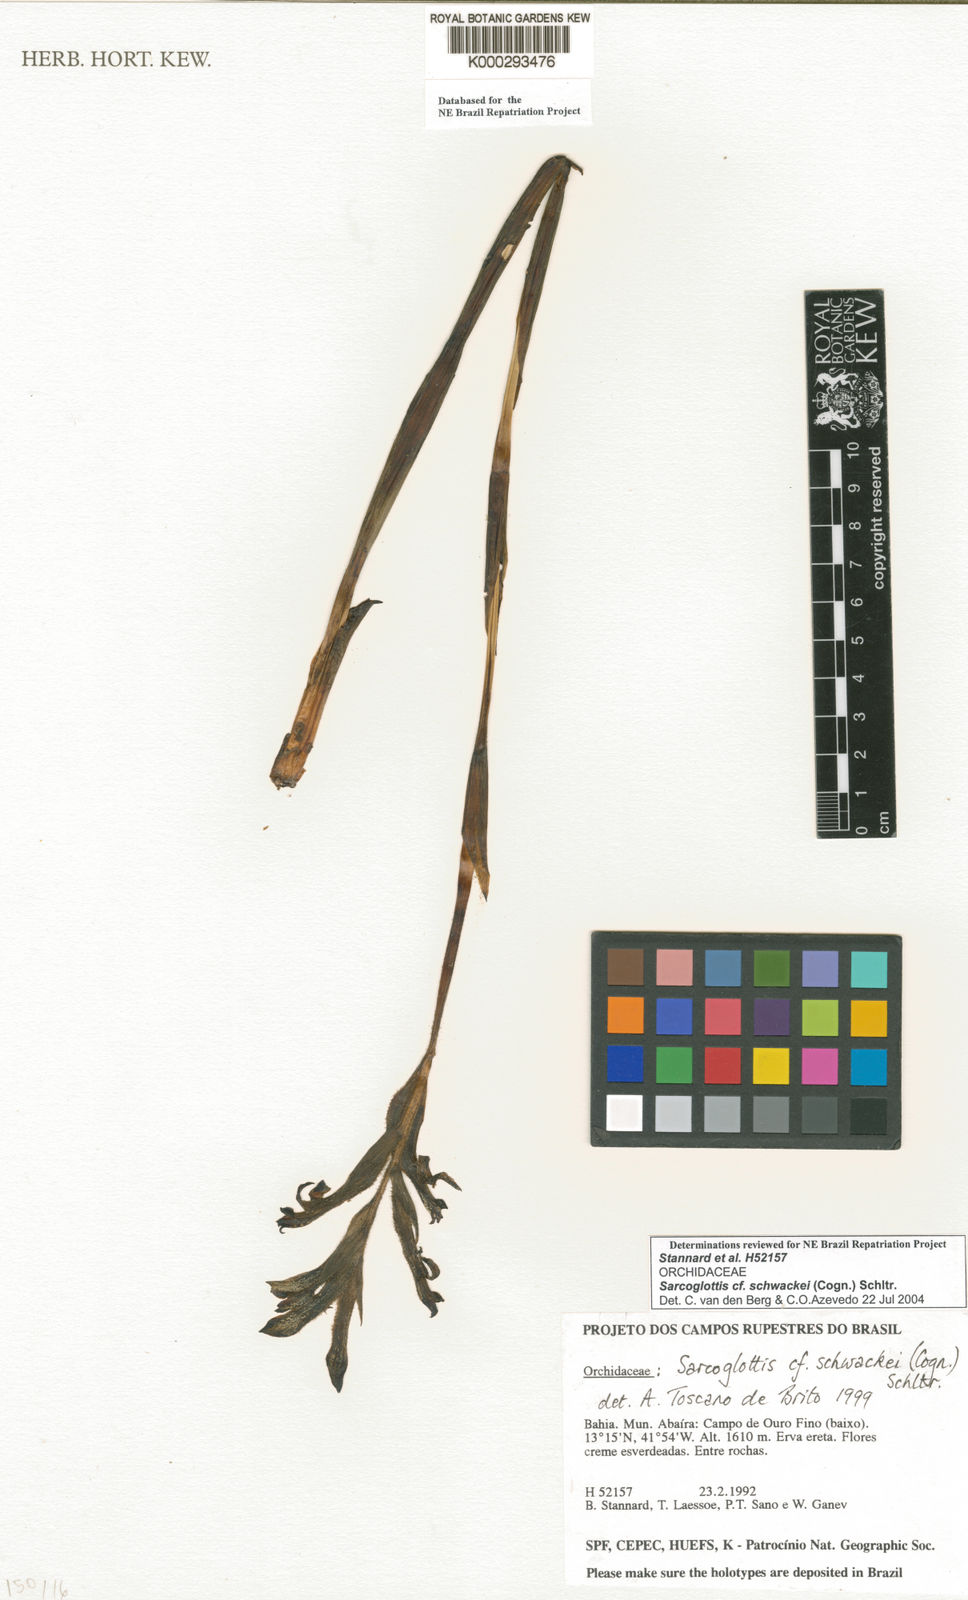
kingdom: Plantae
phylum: Tracheophyta
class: Liliopsida
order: Asparagales
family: Orchidaceae
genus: Sarcoglottis
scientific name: Sarcoglottis schwackei
